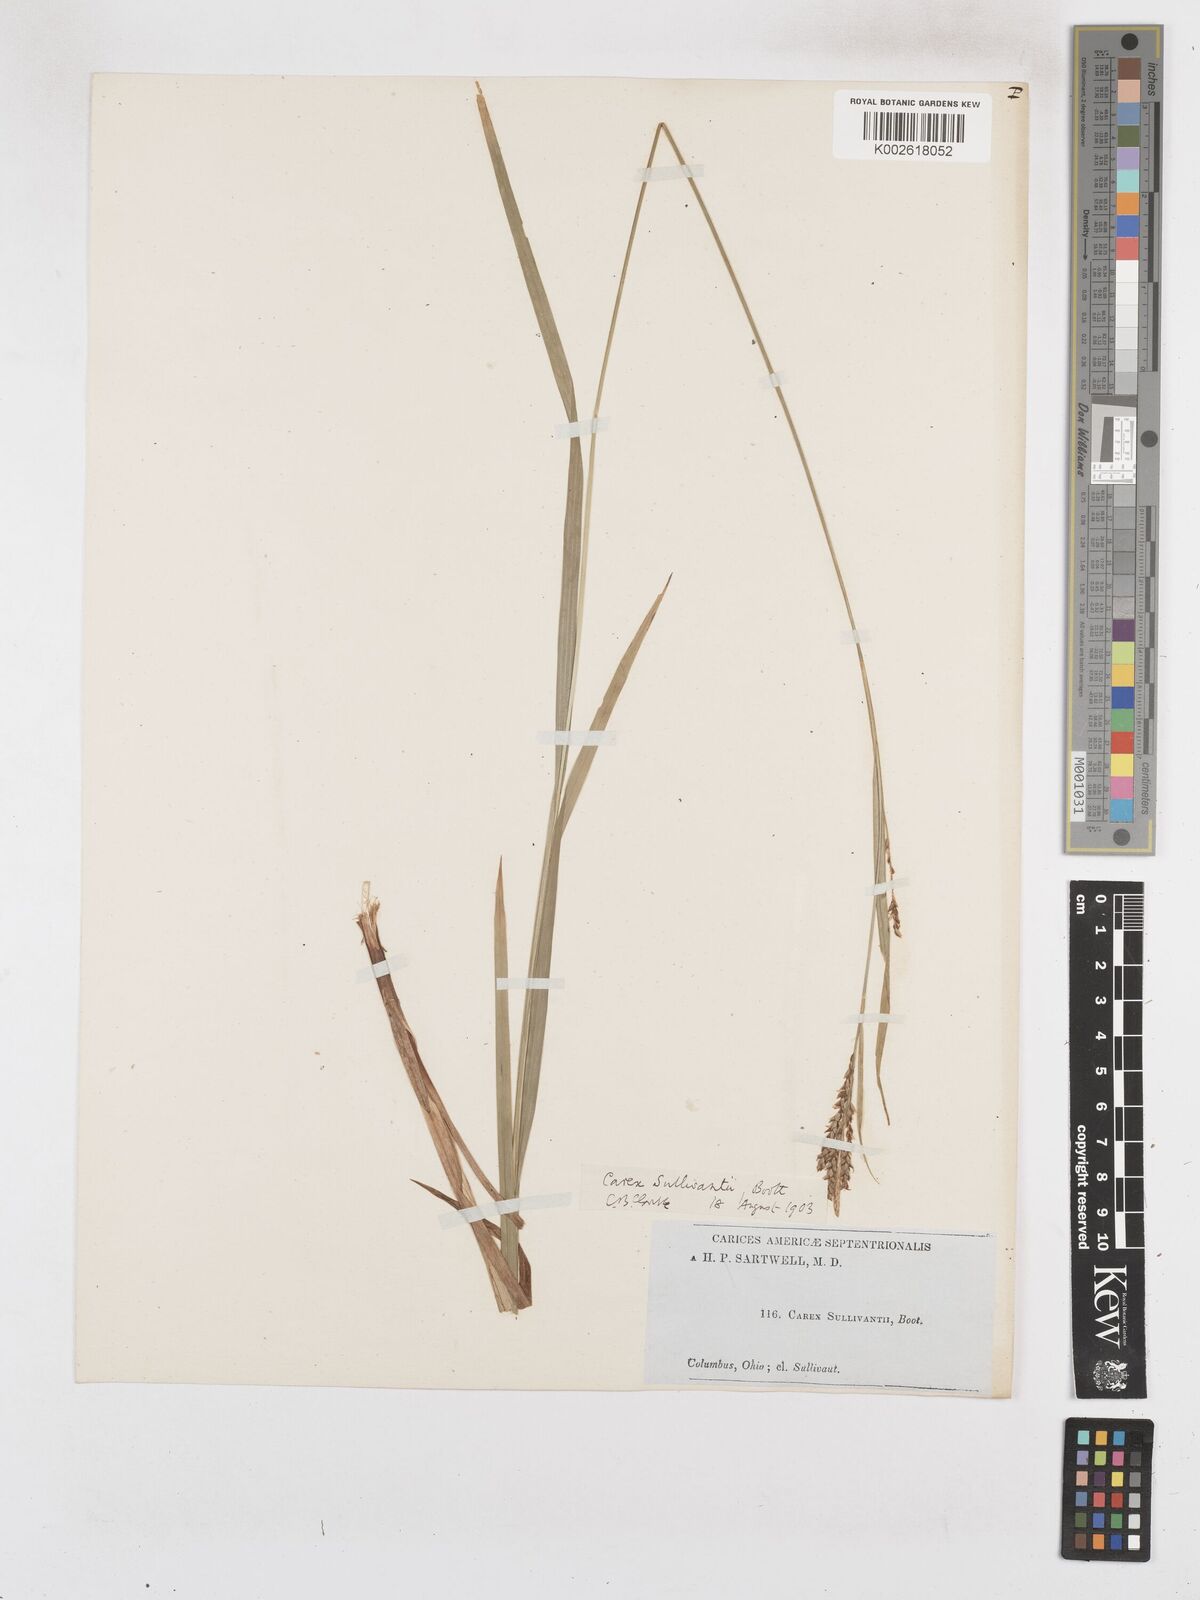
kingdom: Plantae
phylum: Tracheophyta
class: Liliopsida
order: Poales
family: Cyperaceae
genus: Carex
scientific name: Carex sullivantii
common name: Sullivant's sedge
